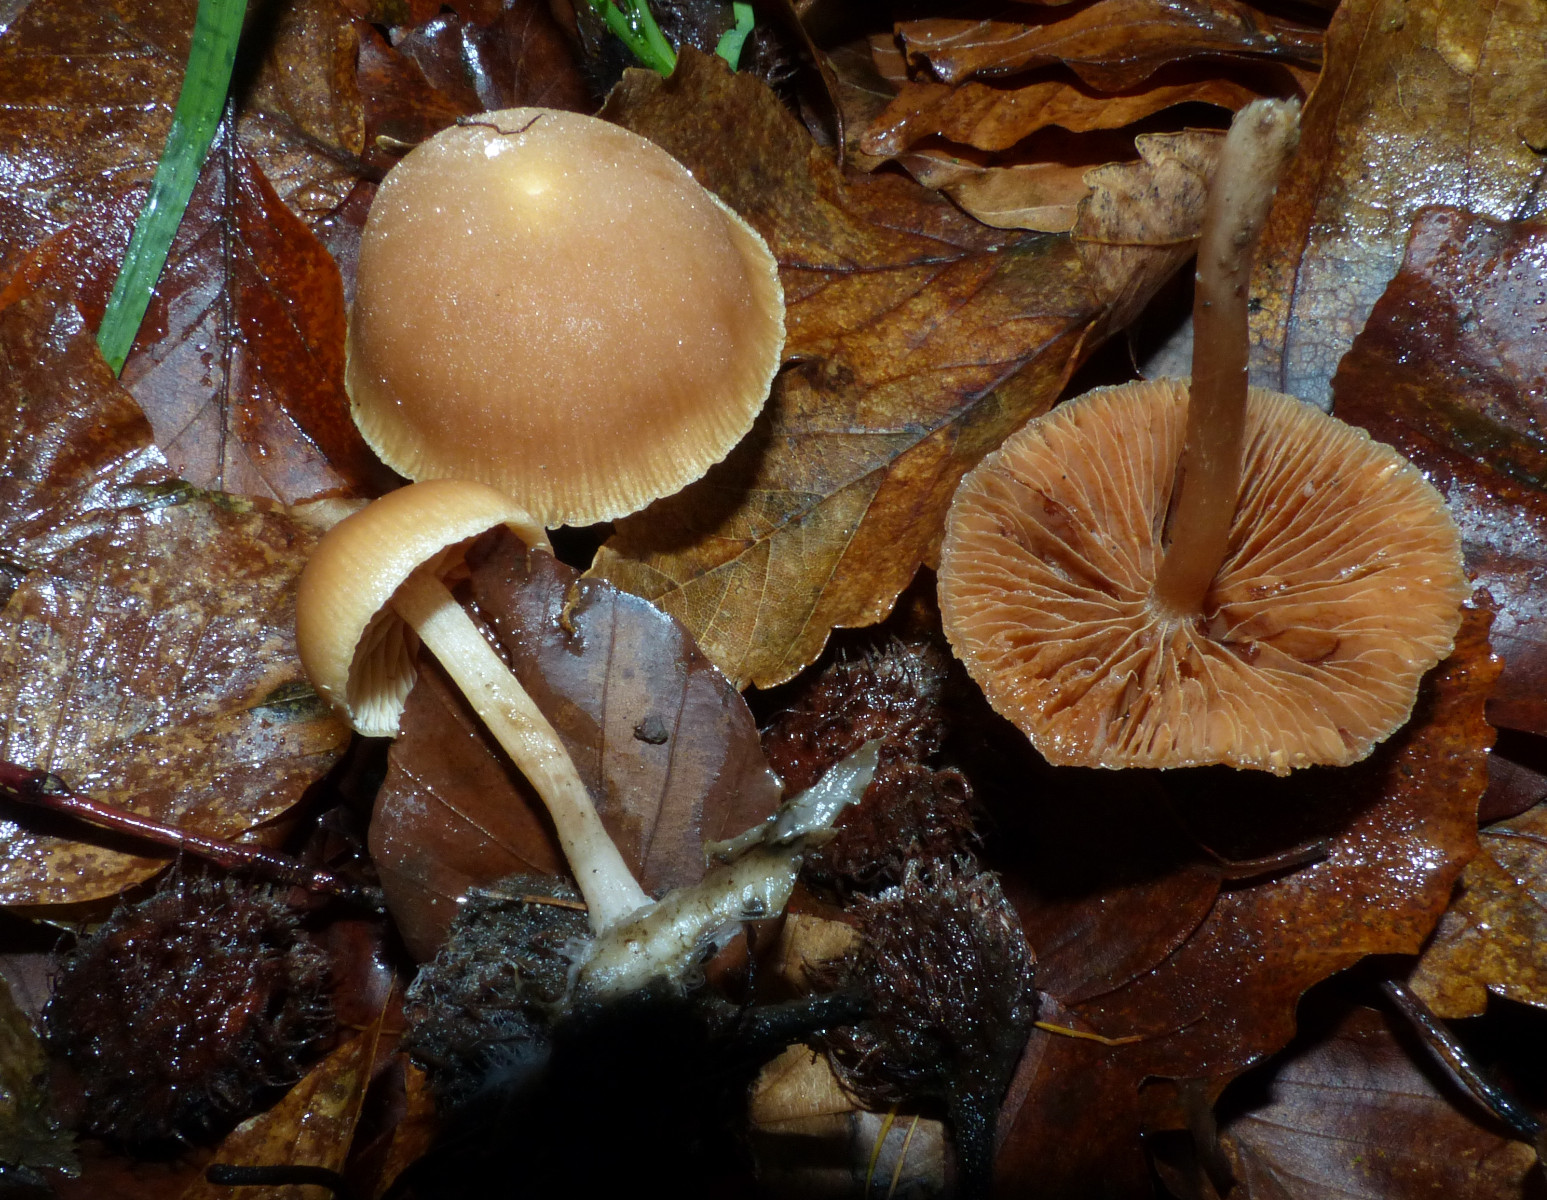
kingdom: Fungi
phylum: Basidiomycota
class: Agaricomycetes
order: Agaricales
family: Tubariaceae
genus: Tubaria
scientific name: Tubaria furfuracea
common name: kliddet fnughat
